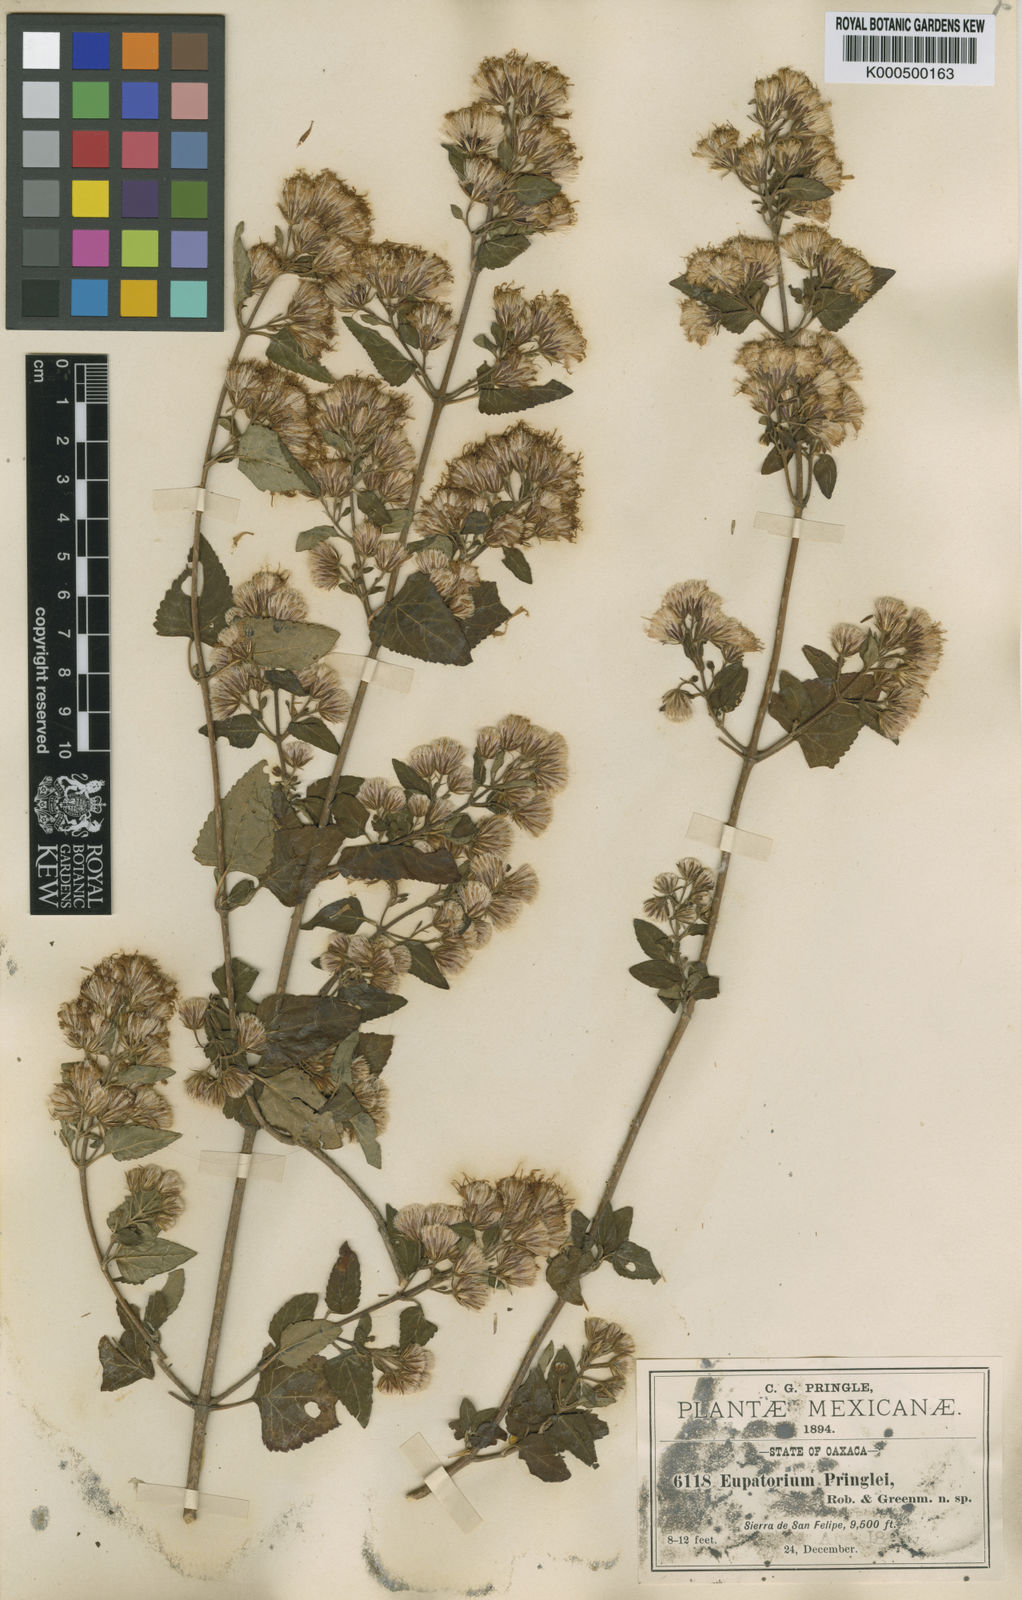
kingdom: Plantae
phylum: Tracheophyta
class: Magnoliopsida
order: Asterales
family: Asteraceae
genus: Ageratina
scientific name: Ageratina pringlei
